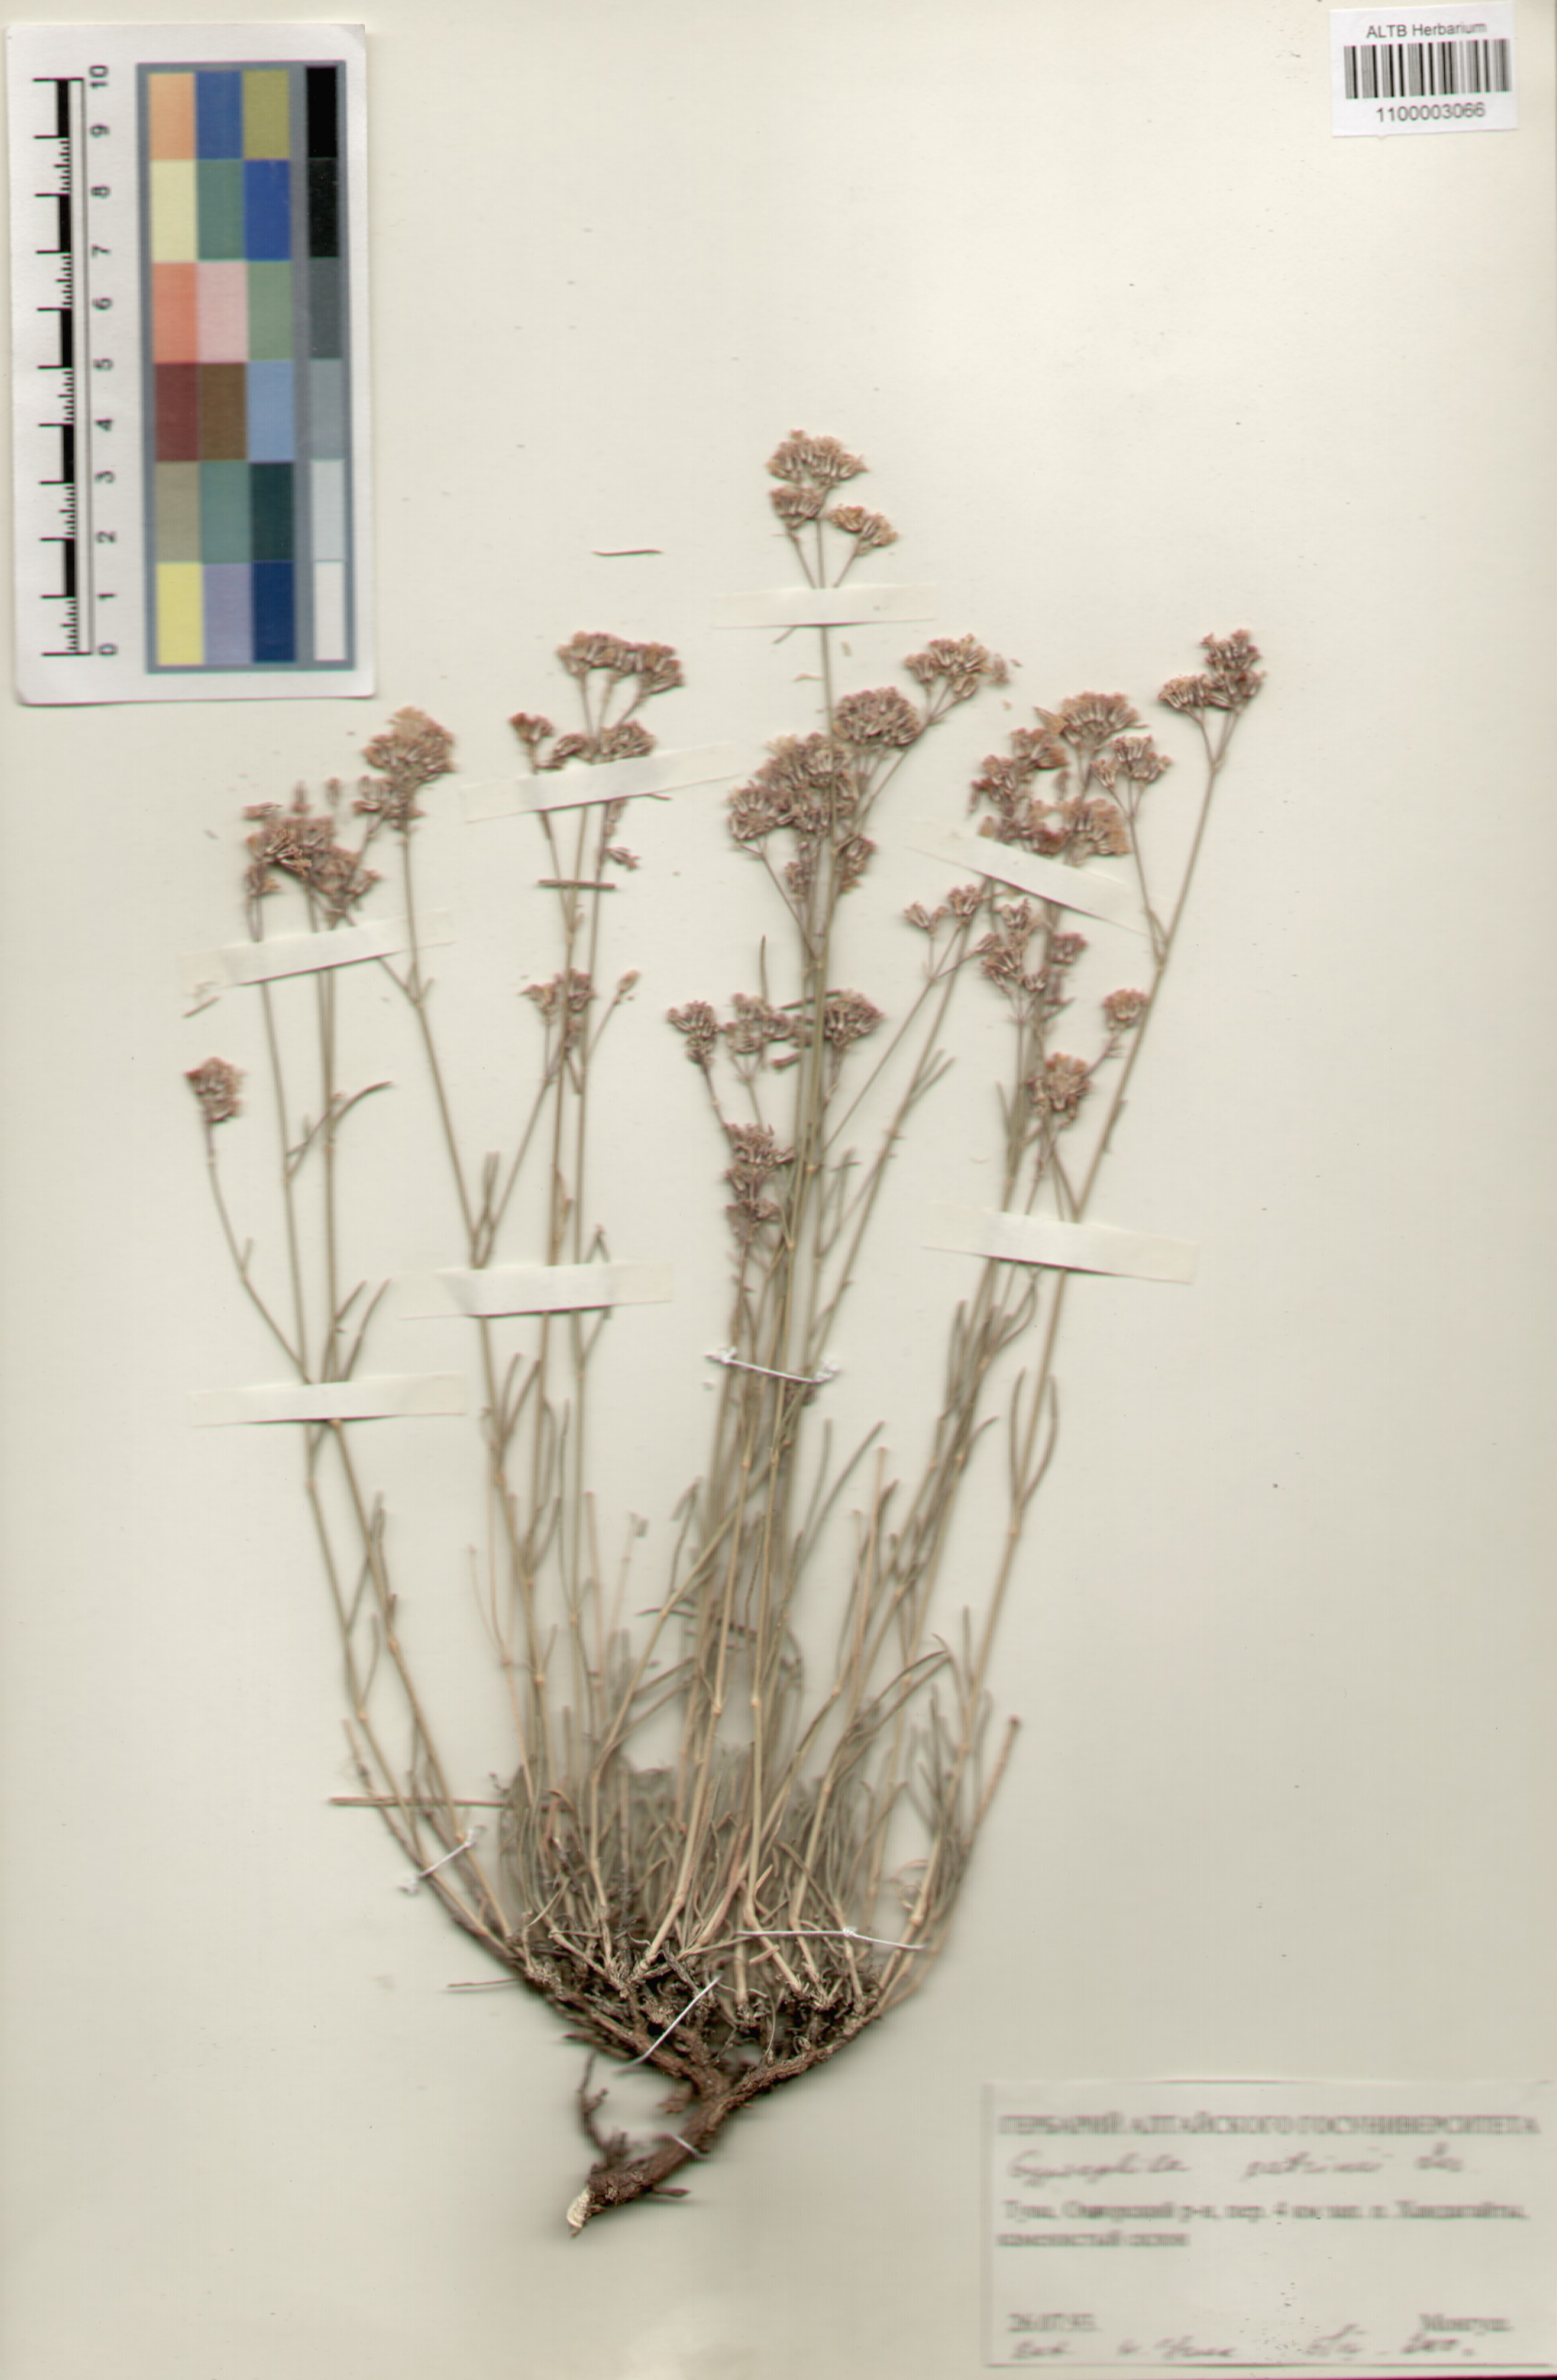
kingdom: Plantae
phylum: Tracheophyta
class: Magnoliopsida
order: Caryophyllales
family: Caryophyllaceae
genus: Gypsophila
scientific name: Gypsophila patrinii
